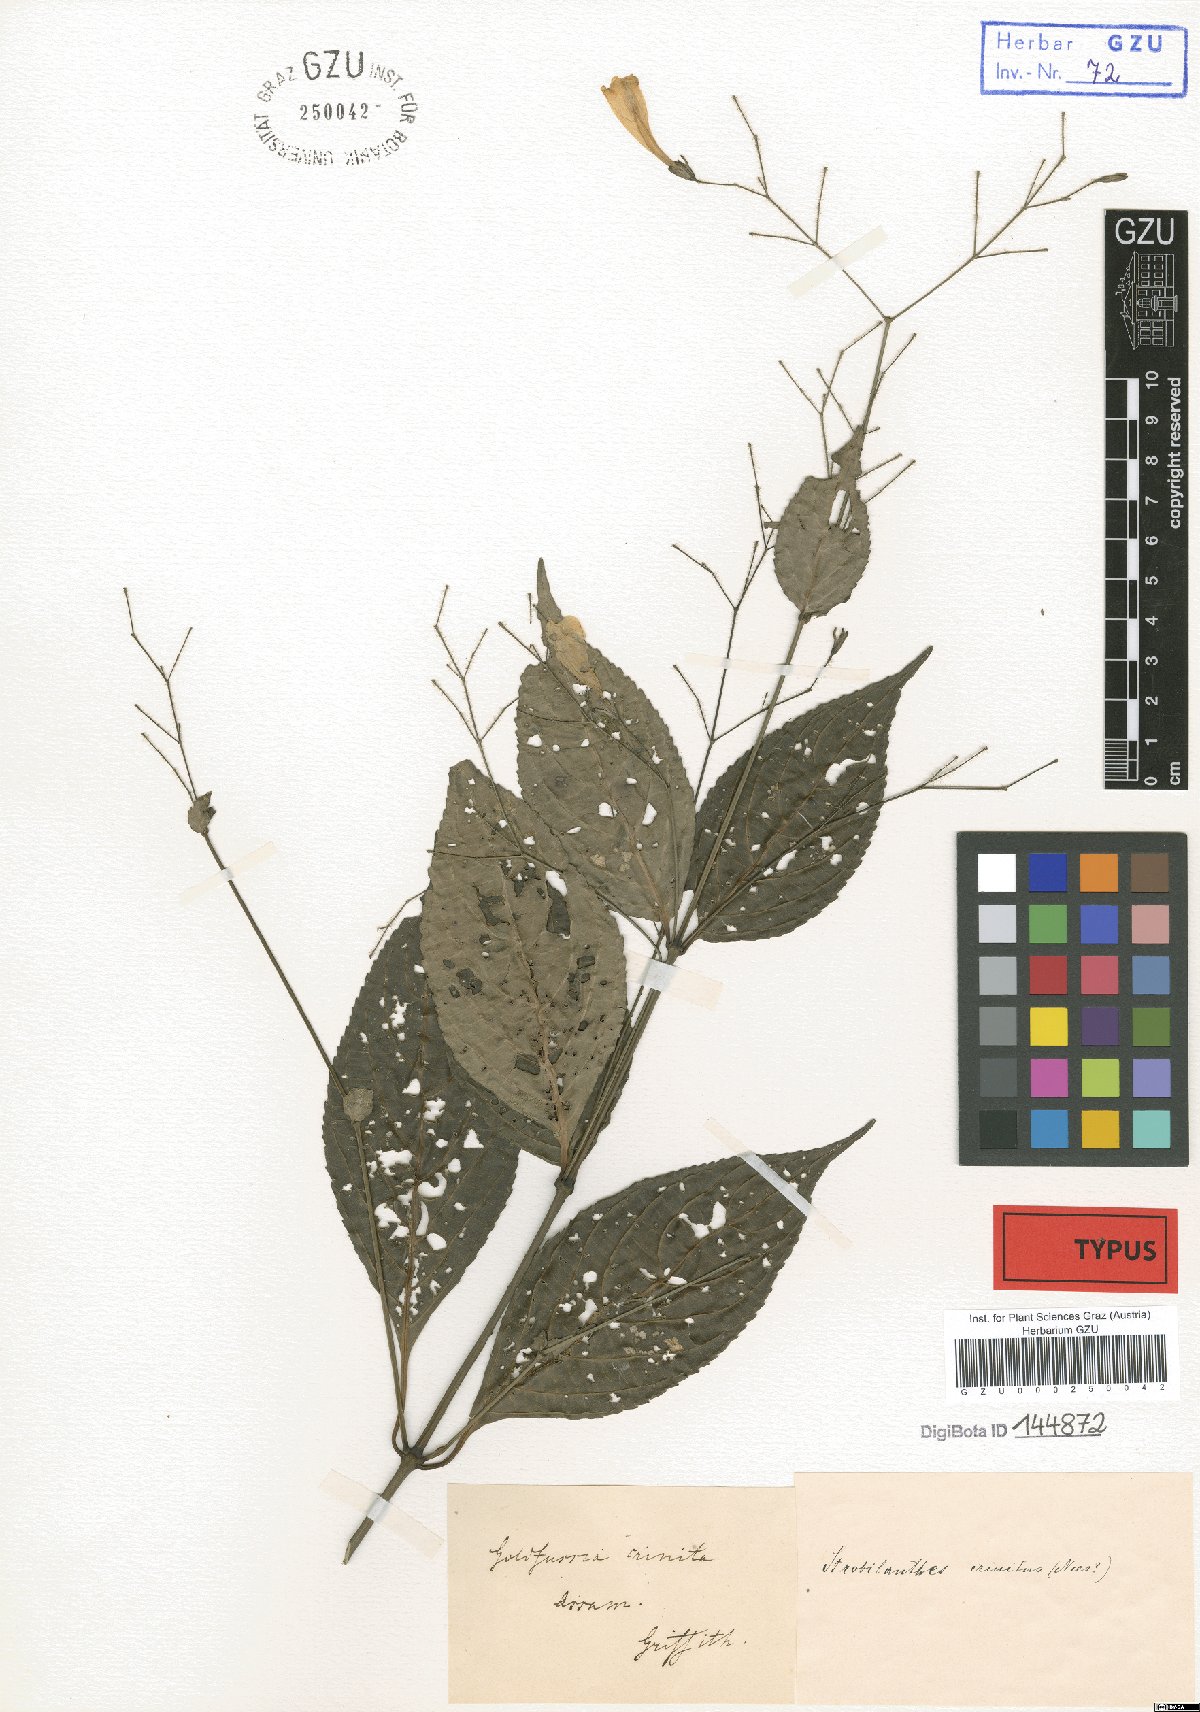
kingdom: Plantae
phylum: Tracheophyta
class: Magnoliopsida
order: Lamiales
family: Acanthaceae
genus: Strobilanthes
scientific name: Strobilanthes hamiltoniana
